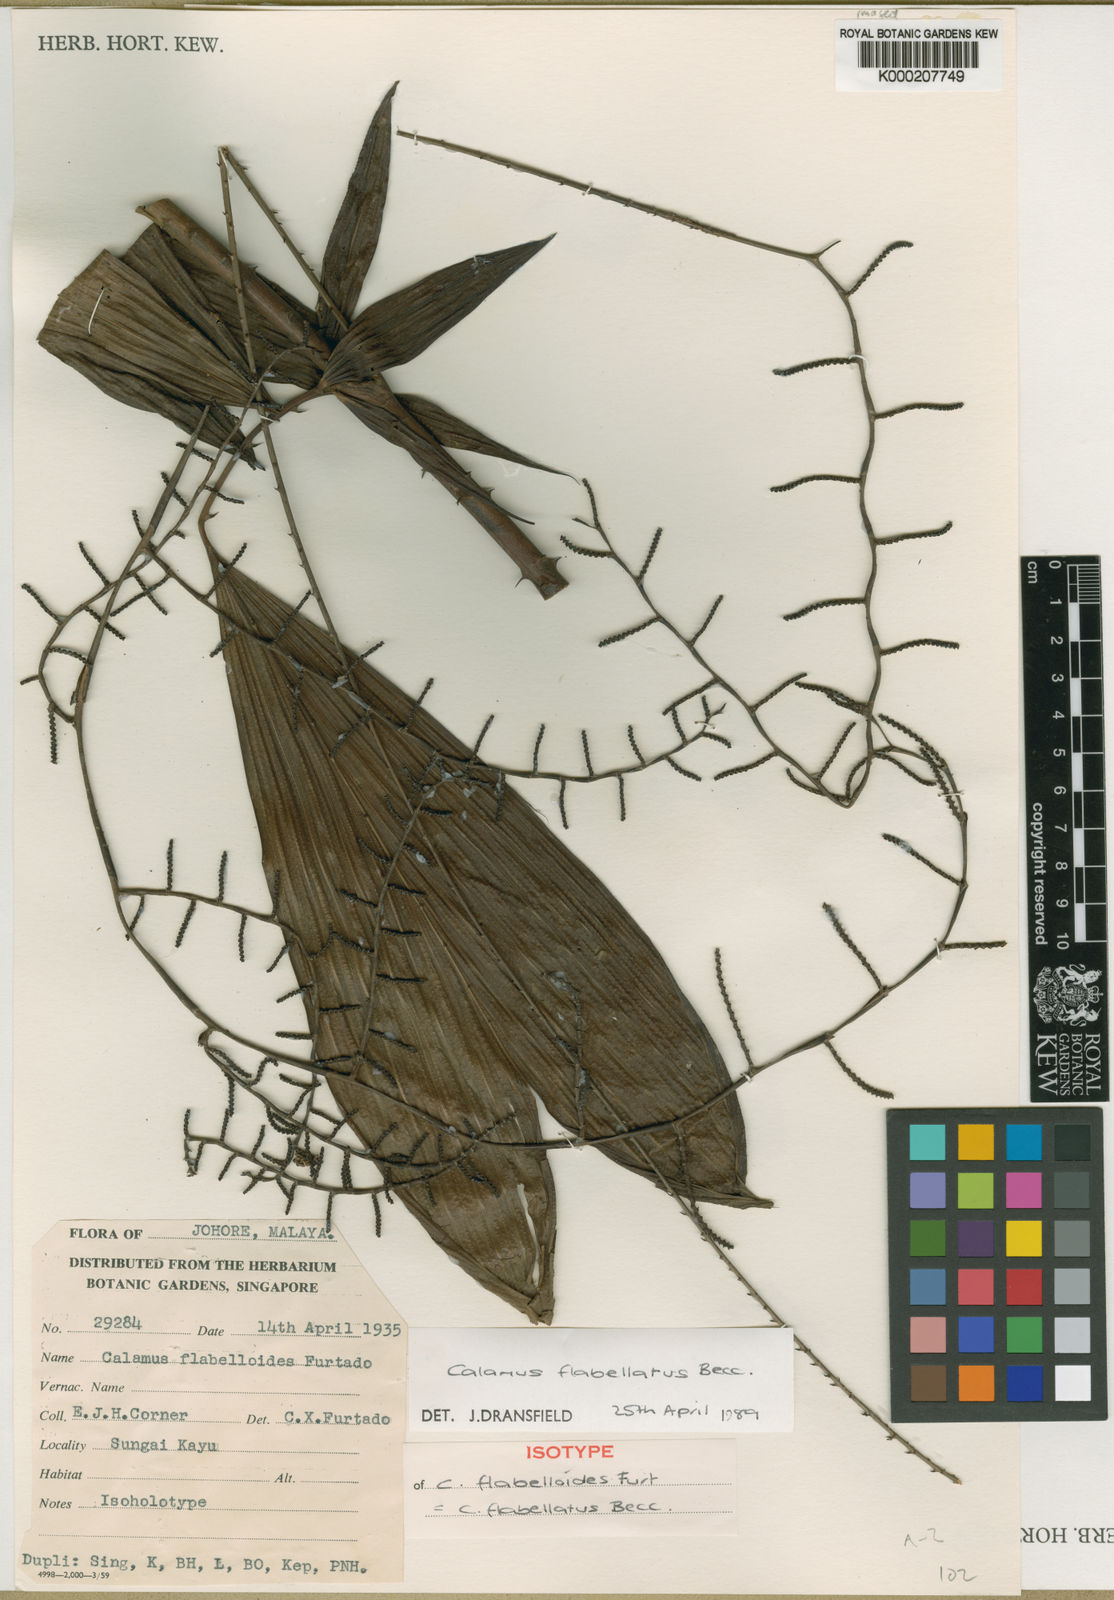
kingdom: Plantae
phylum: Tracheophyta
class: Liliopsida
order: Arecales
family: Arecaceae
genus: Calamus
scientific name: Calamus flabellatus
